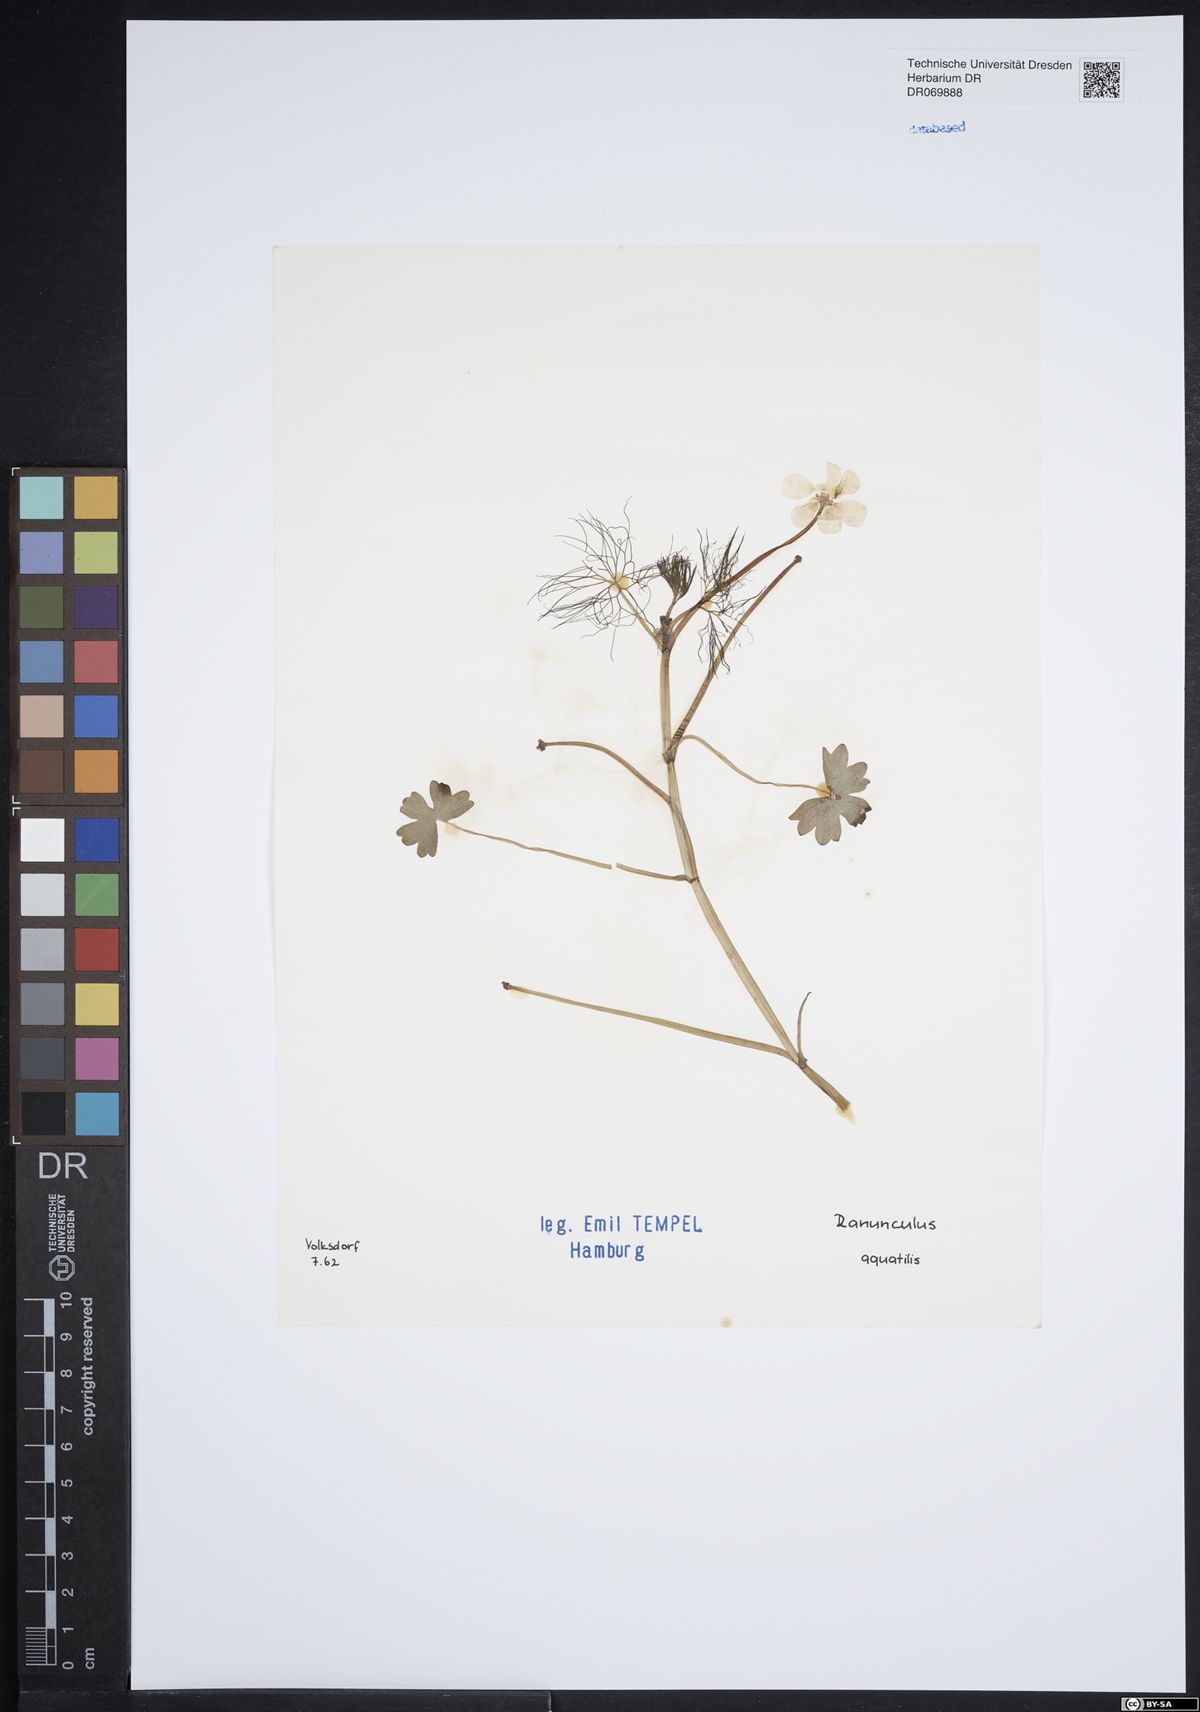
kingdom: Plantae
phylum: Tracheophyta
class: Magnoliopsida
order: Ranunculales
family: Ranunculaceae
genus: Ranunculus
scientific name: Ranunculus aquatilis
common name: Common water-crowfoot
